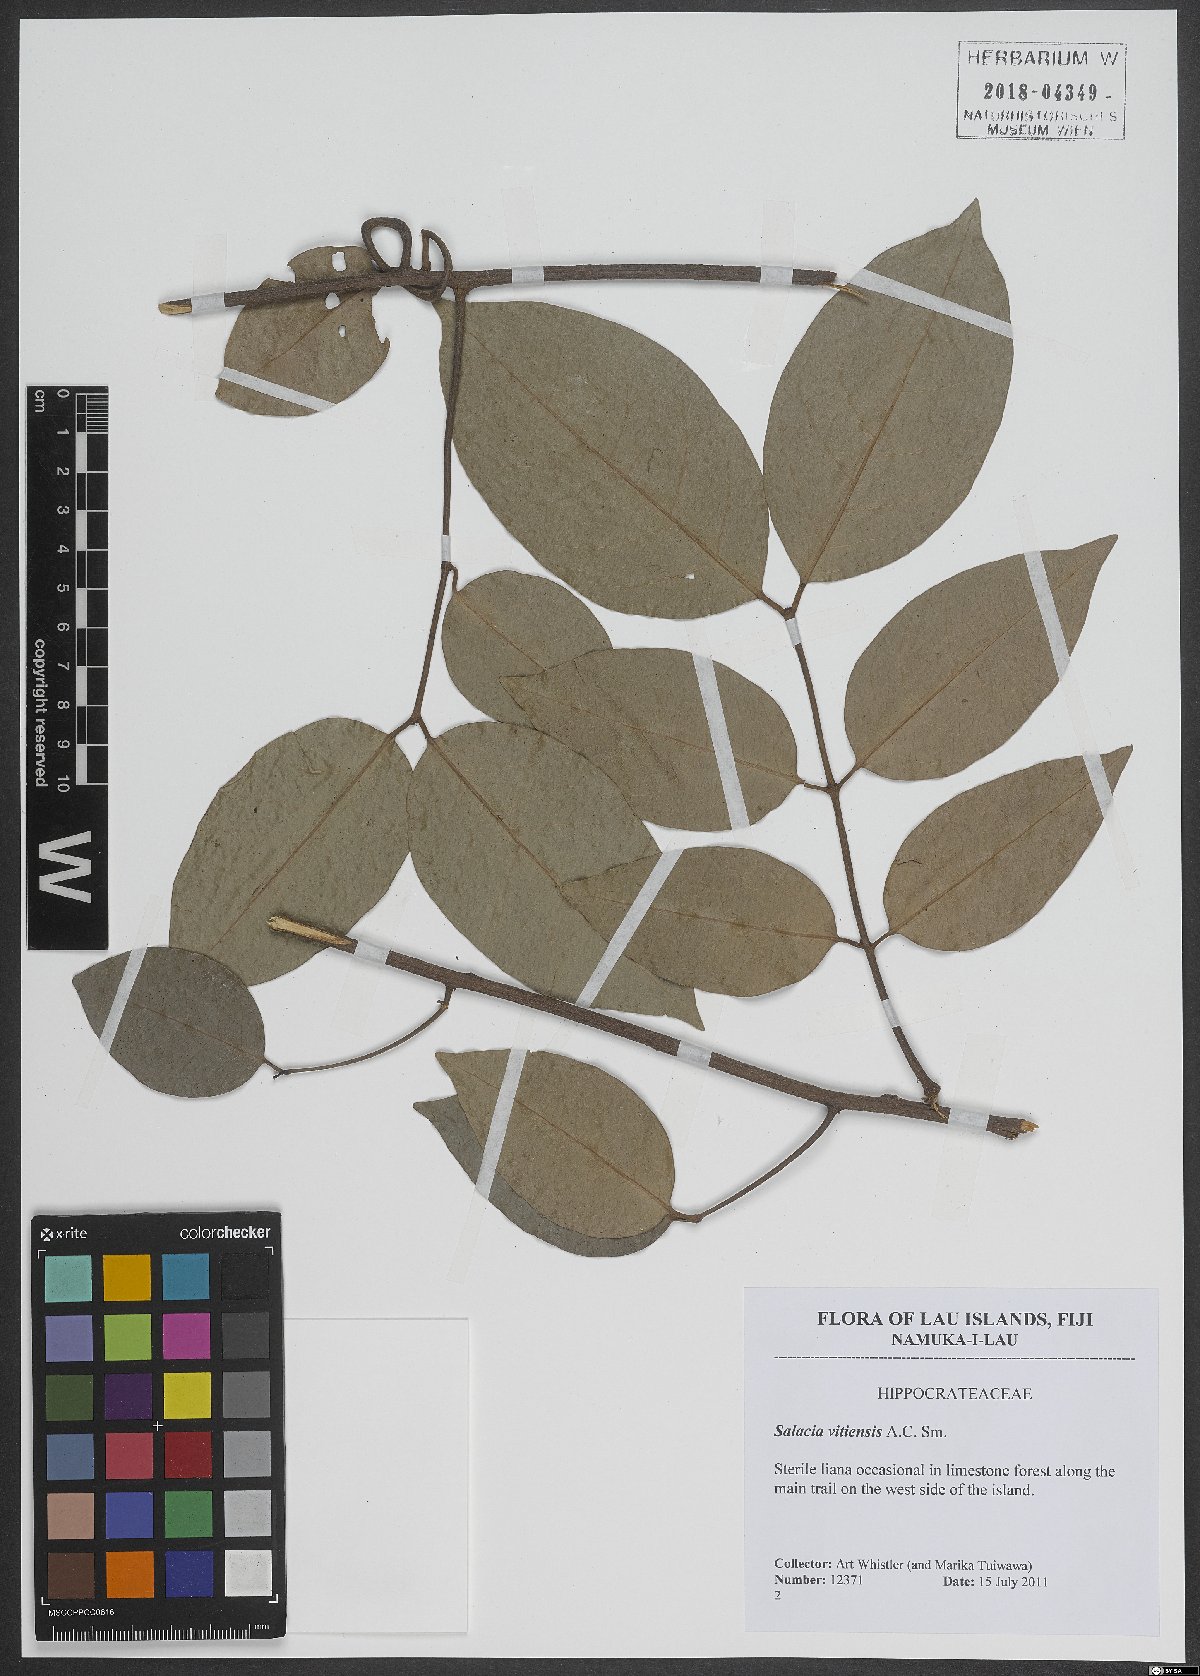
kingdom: Plantae
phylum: Tracheophyta
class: Magnoliopsida
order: Celastrales
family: Celastraceae
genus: Salacia
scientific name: Salacia vitiensis
